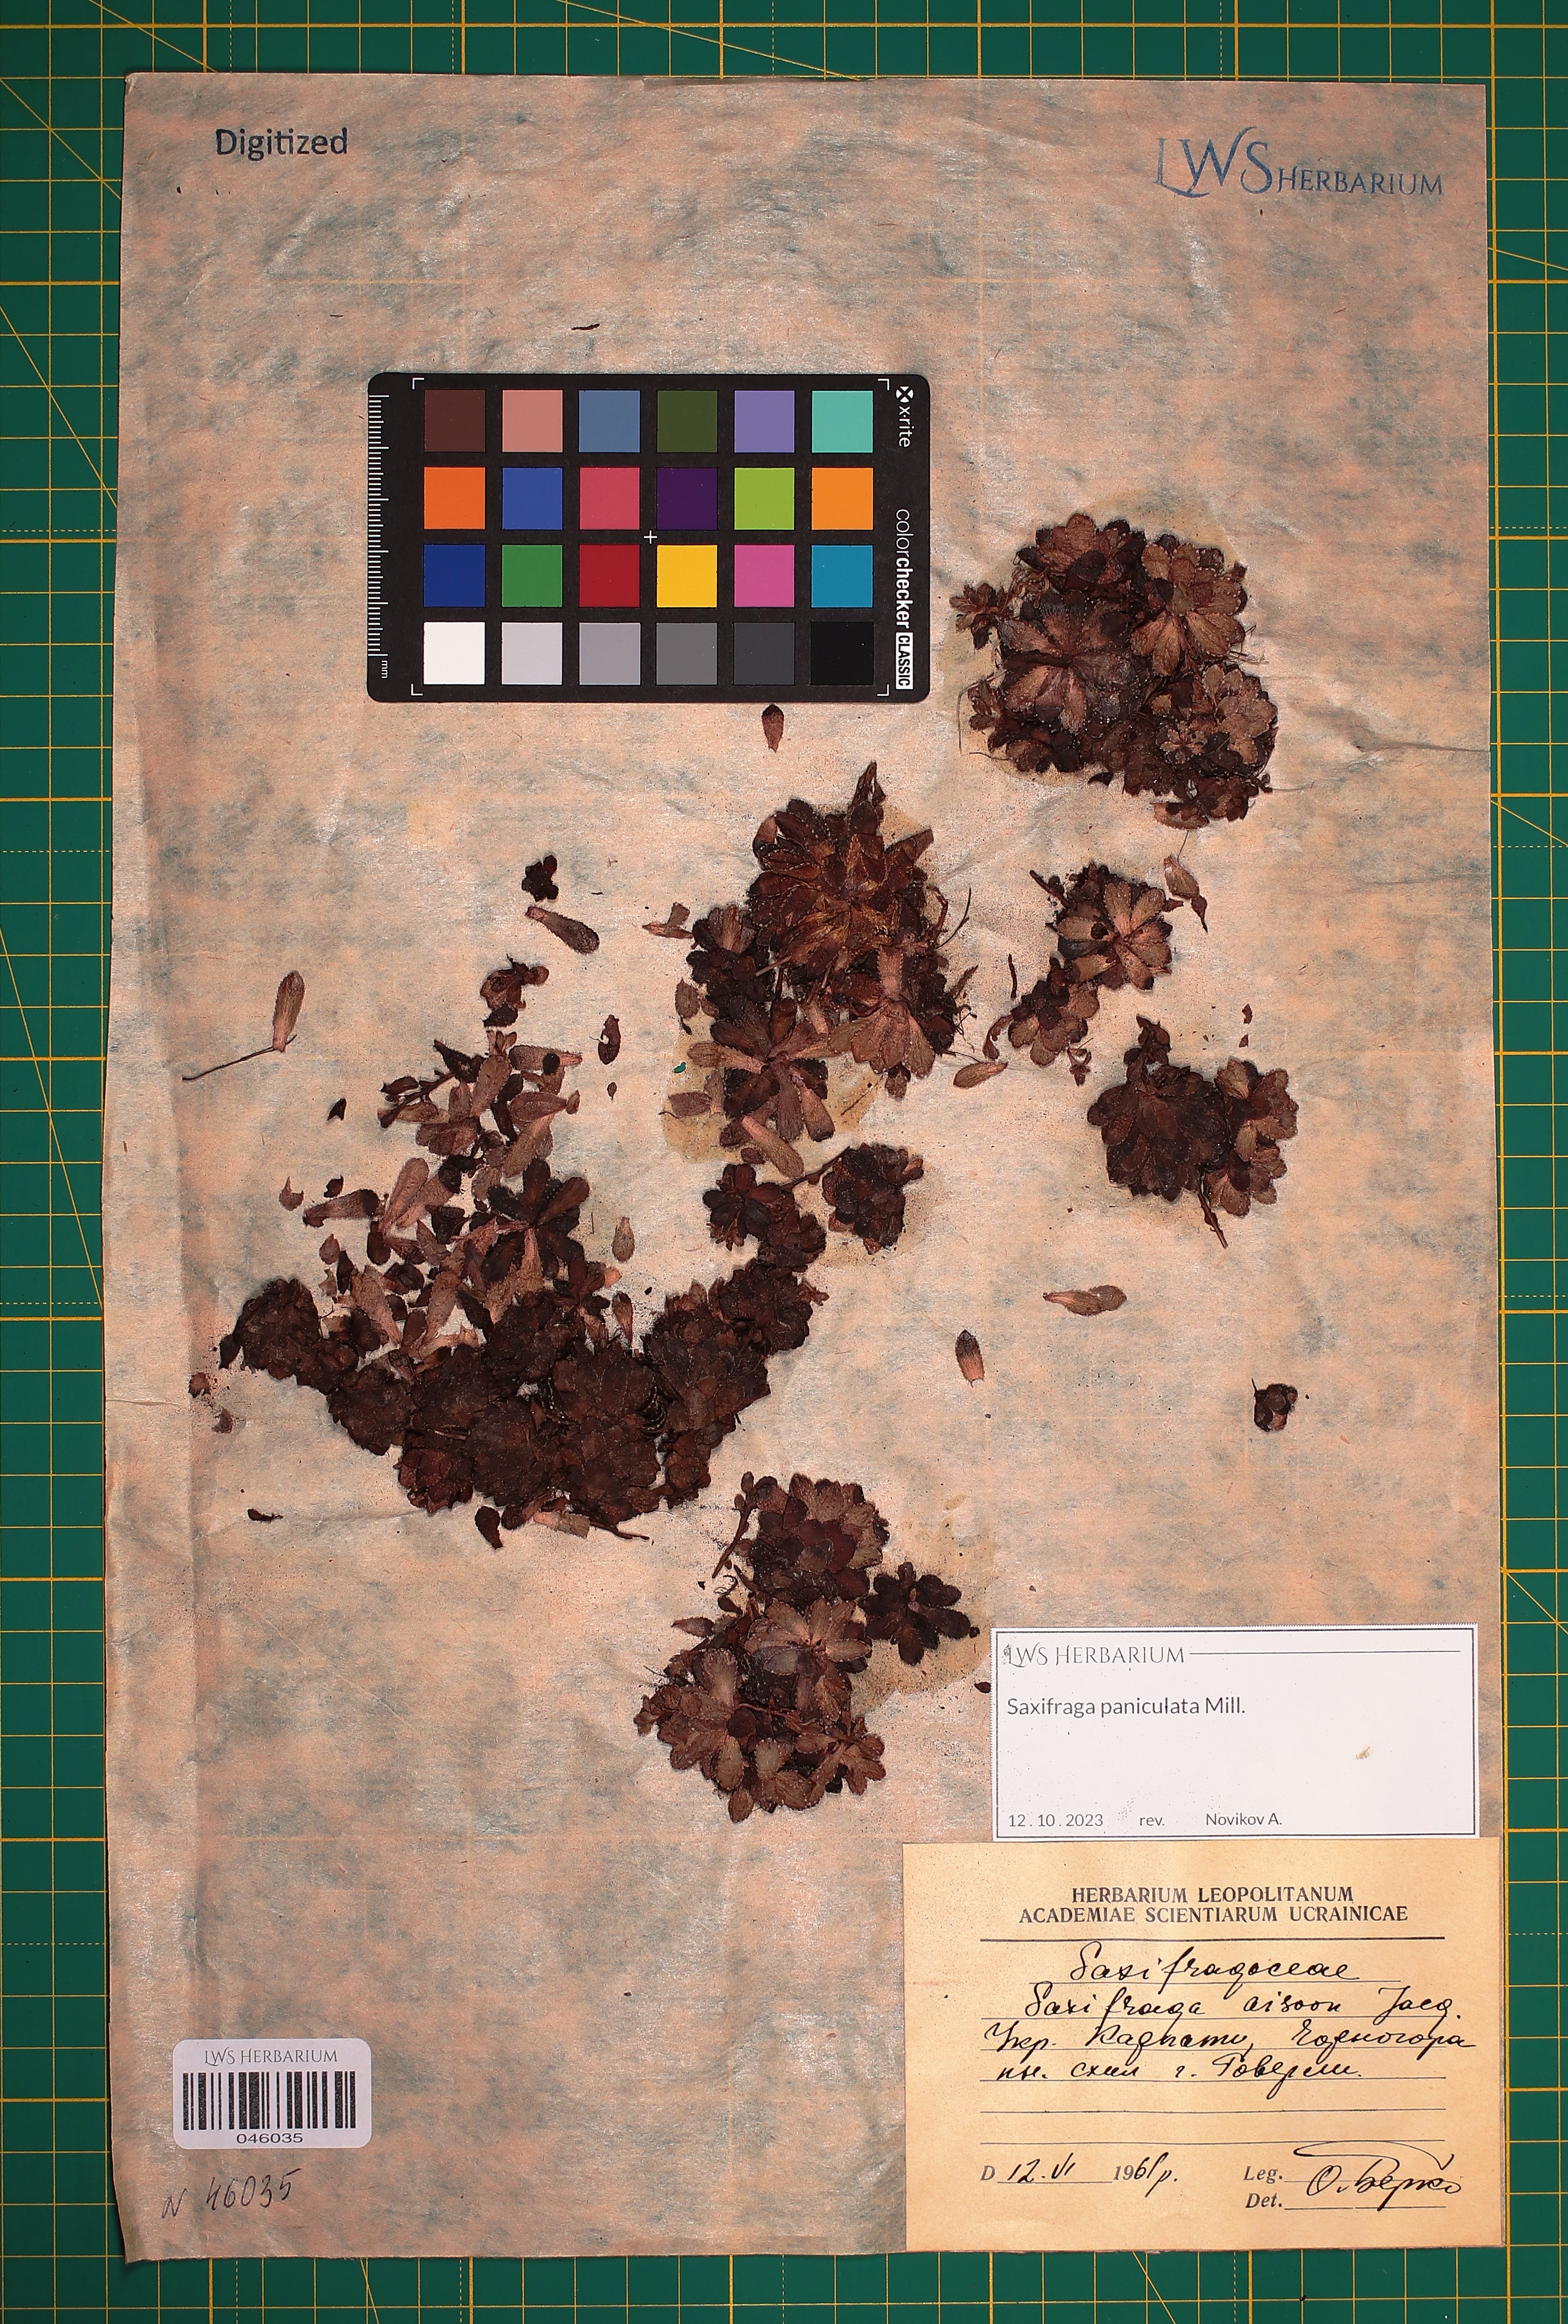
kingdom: Plantae
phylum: Tracheophyta
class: Magnoliopsida
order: Saxifragales
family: Saxifragaceae
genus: Saxifraga
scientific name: Saxifraga paniculata
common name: Livelong saxifrage
